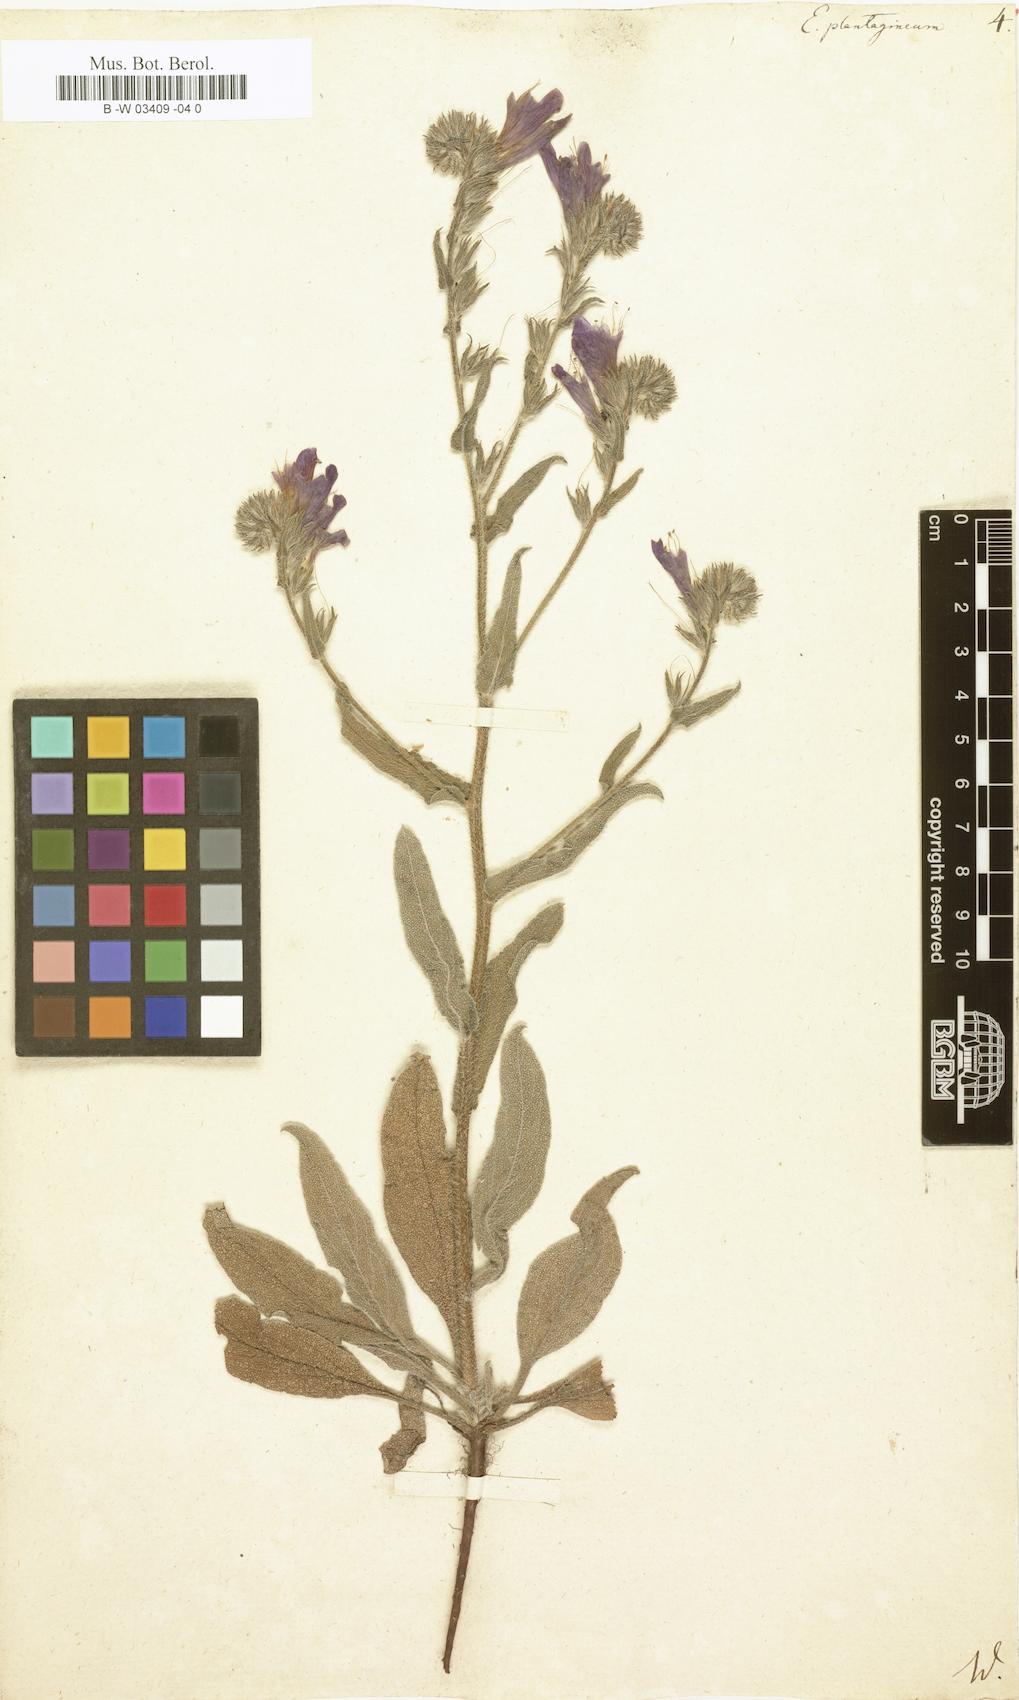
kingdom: Plantae
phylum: Tracheophyta
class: Magnoliopsida
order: Boraginales
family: Boraginaceae
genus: Echium
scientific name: Echium plantagineum
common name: Purple viper's-bugloss
